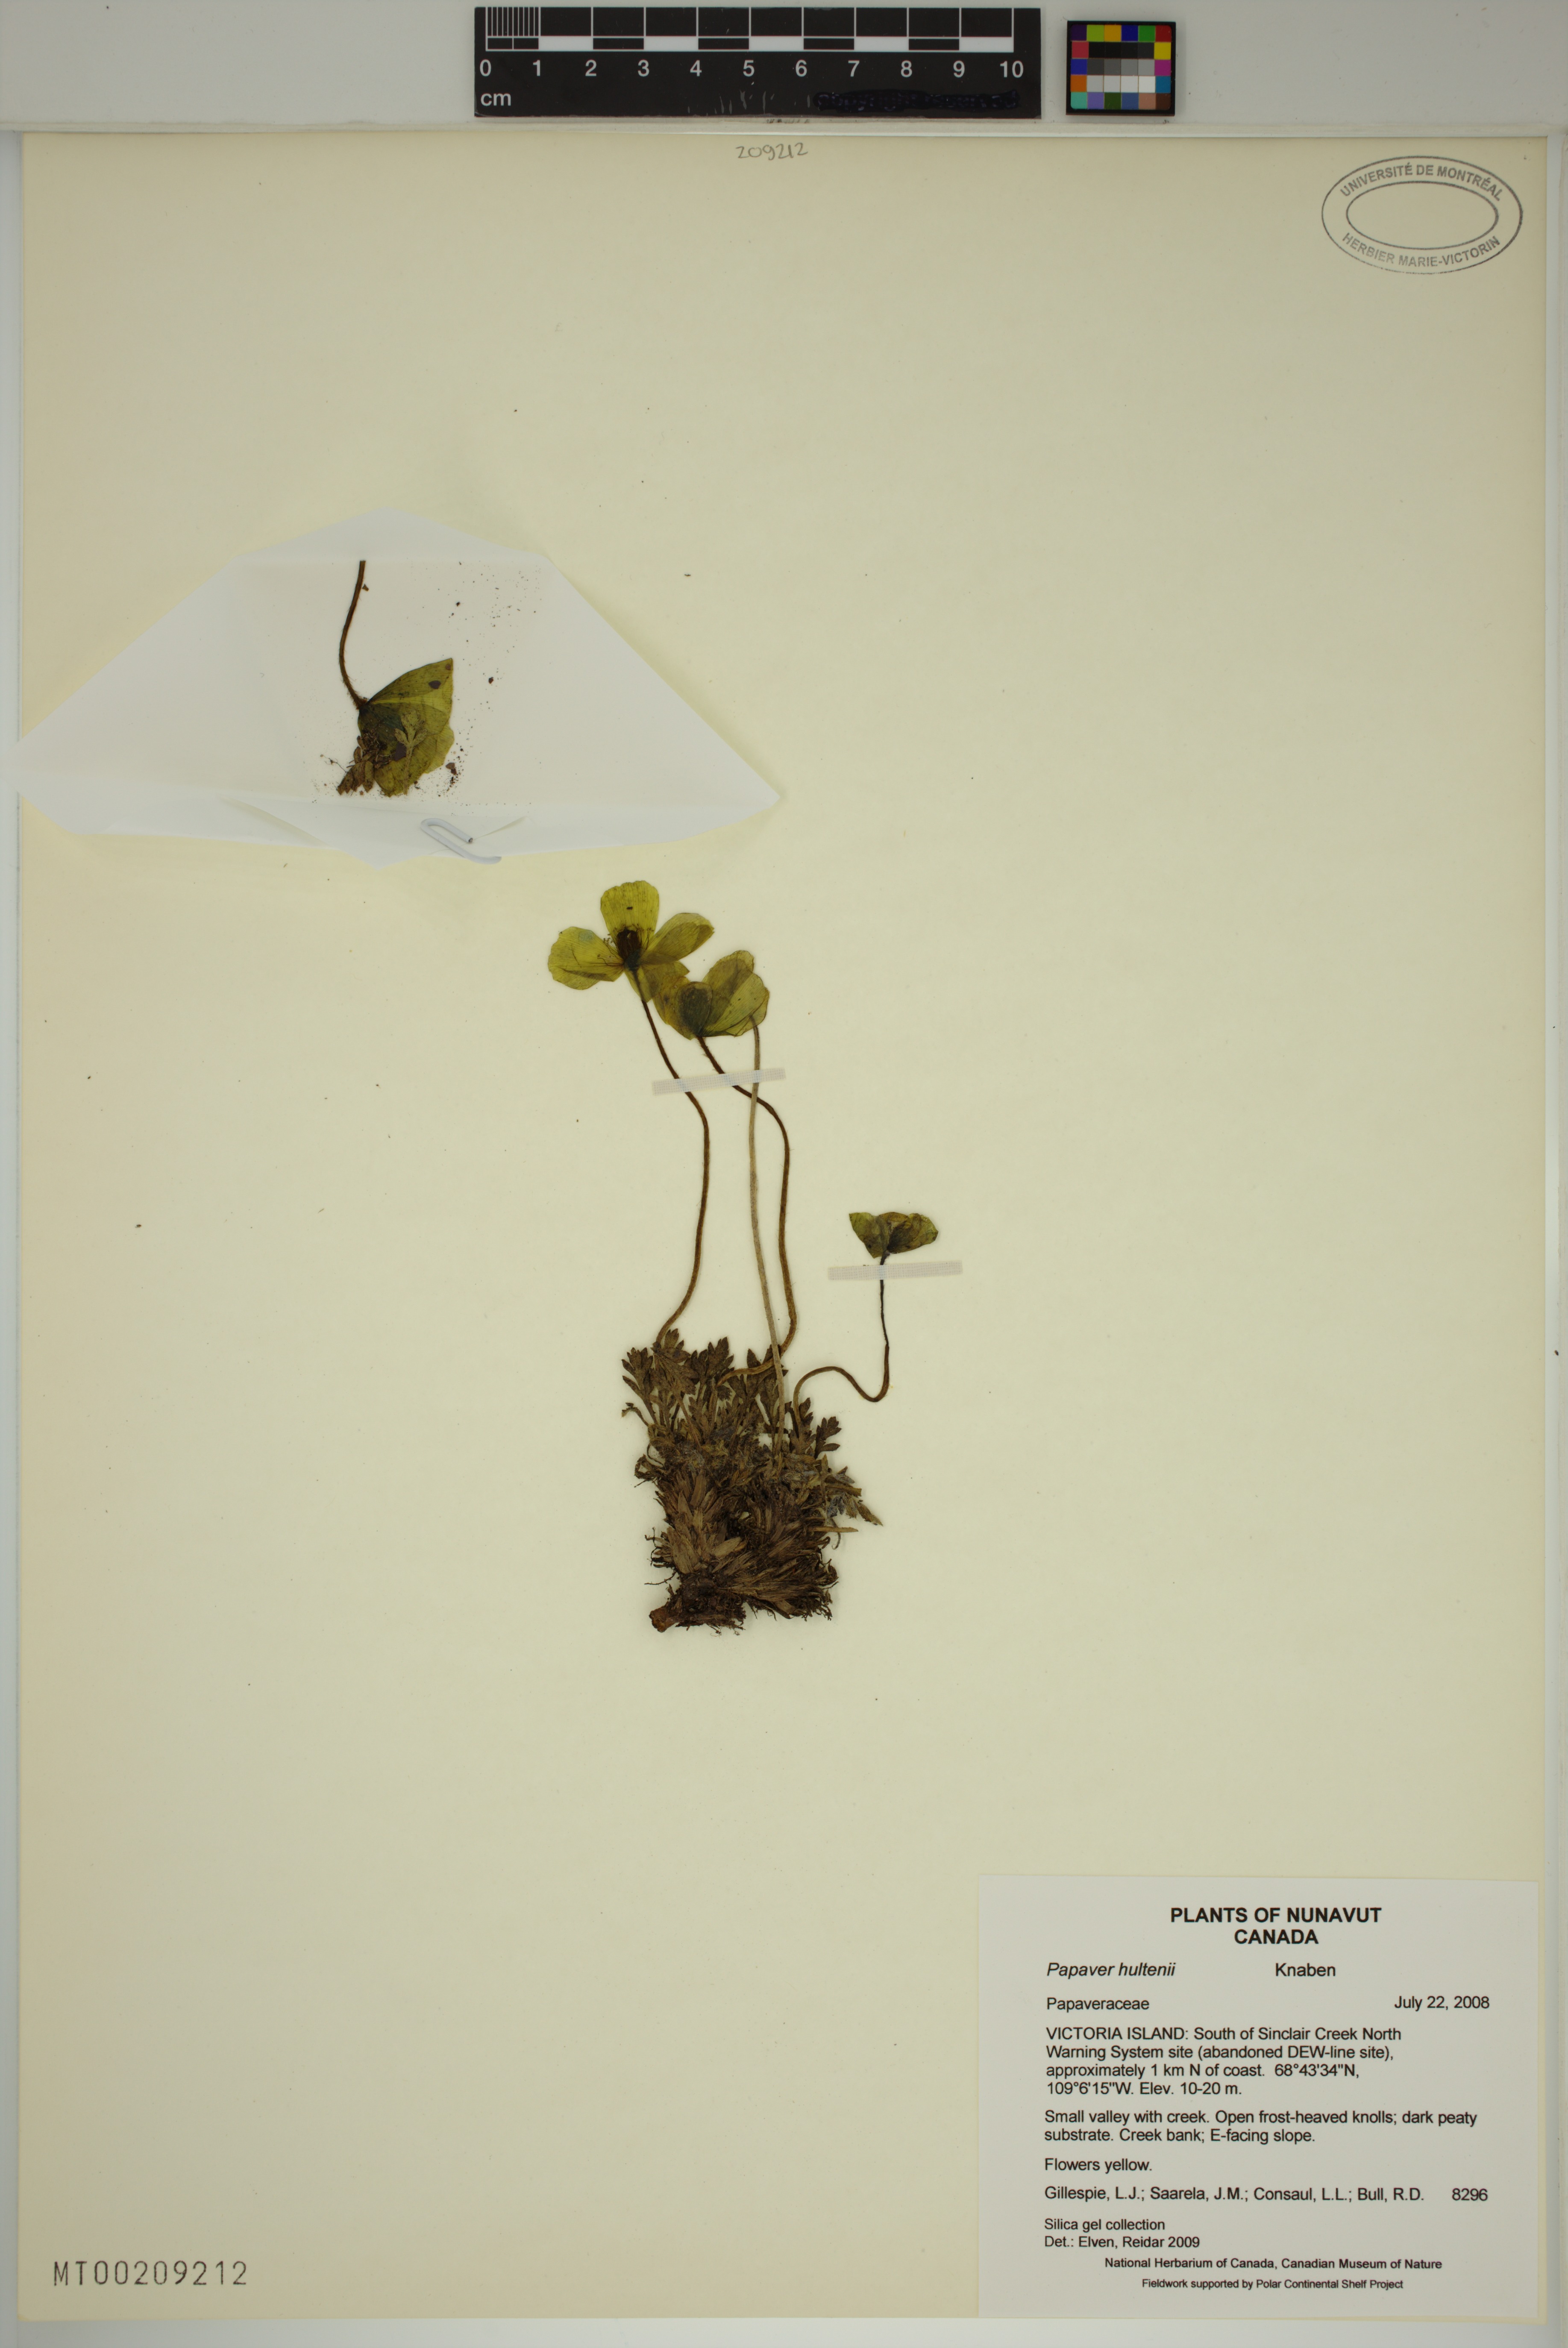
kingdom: Plantae
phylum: Tracheophyta
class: Magnoliopsida
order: Ranunculales
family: Papaveraceae
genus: Papaver
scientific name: Papaver lapponicum
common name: Lapland poppy
